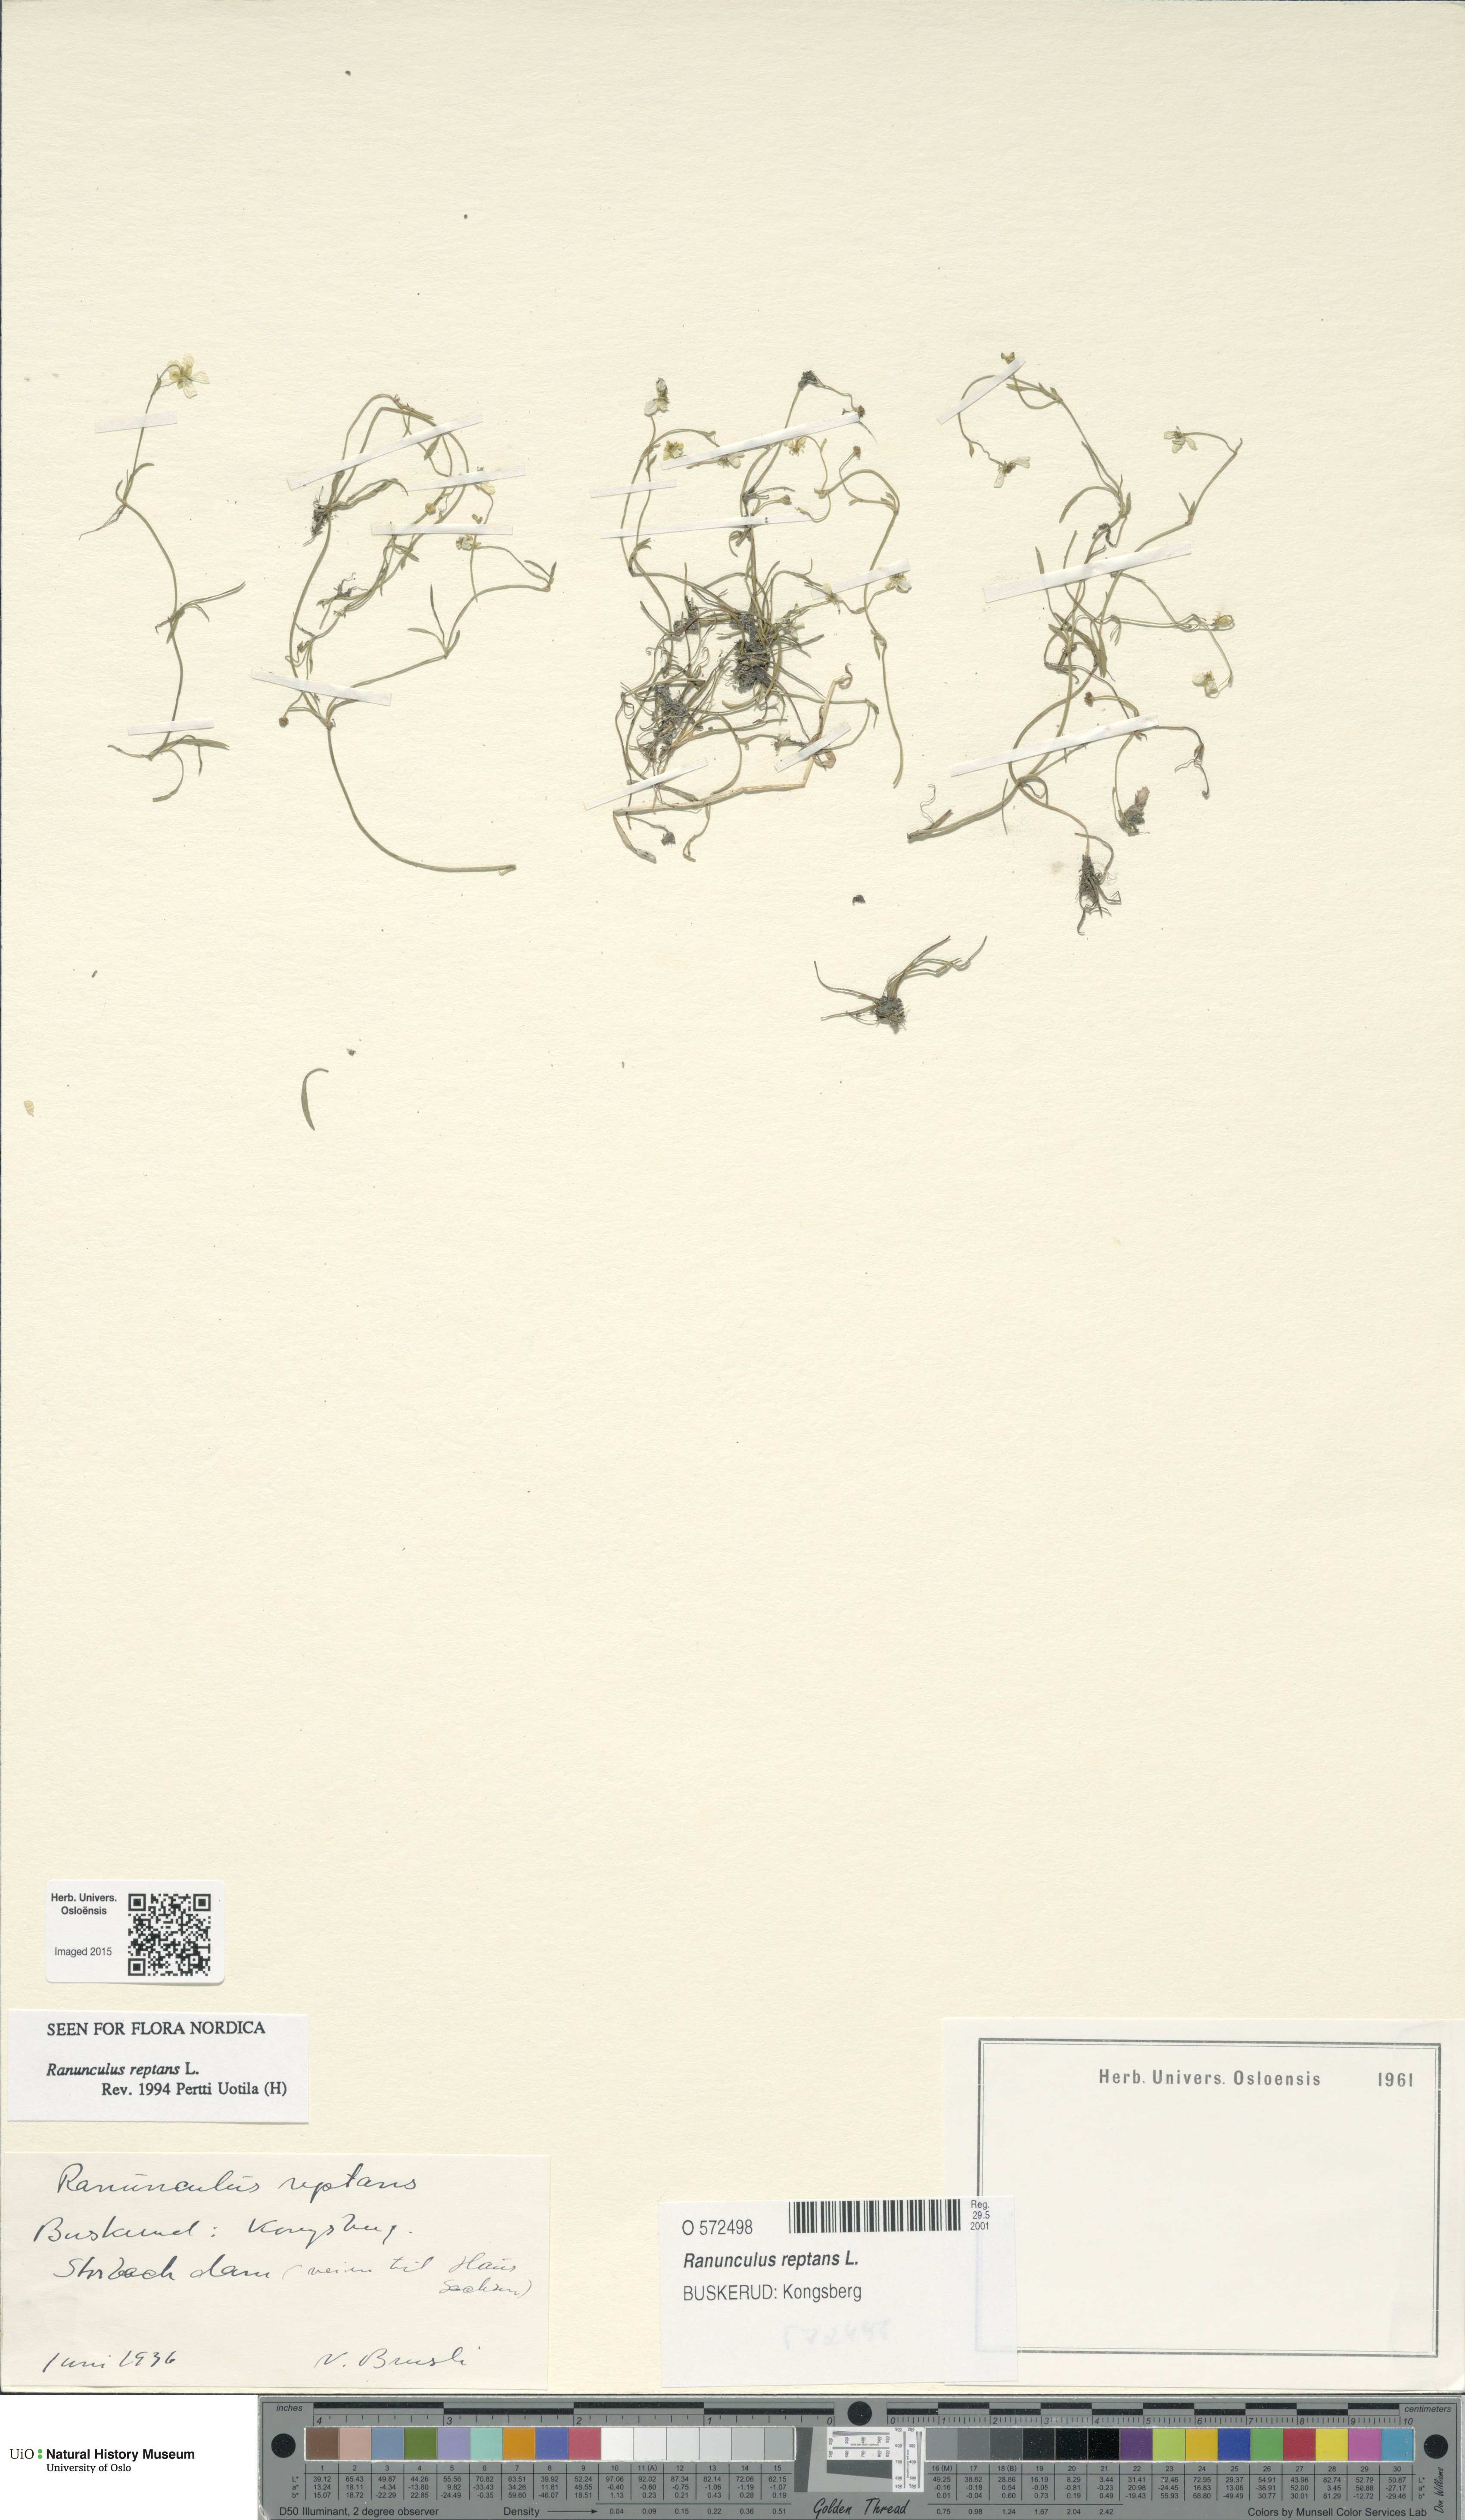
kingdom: Plantae
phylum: Tracheophyta
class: Magnoliopsida
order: Ranunculales
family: Ranunculaceae
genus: Ranunculus
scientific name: Ranunculus reptans
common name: Creeping spearwort
